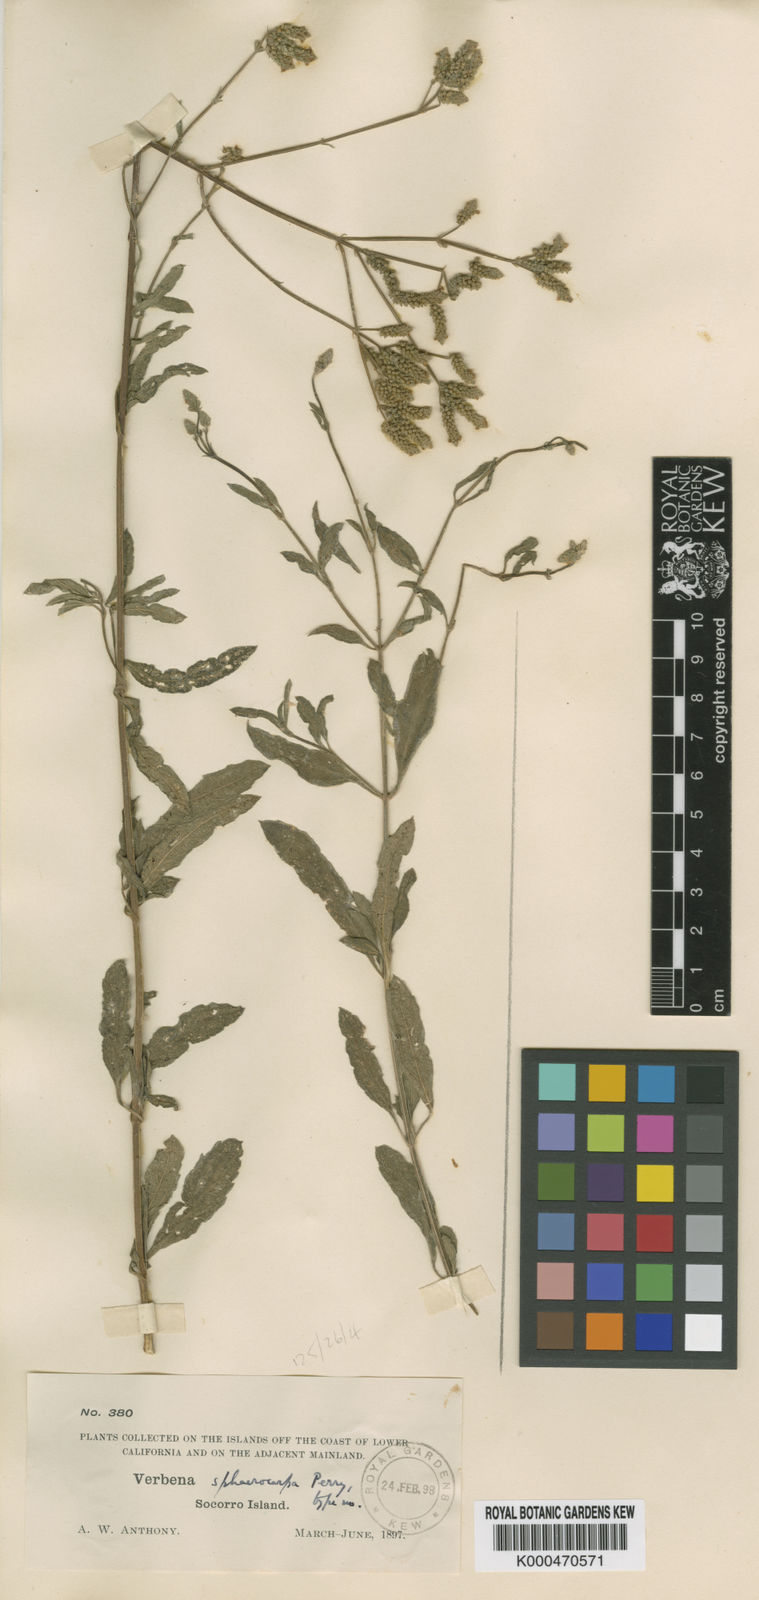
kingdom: Plantae
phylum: Tracheophyta
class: Magnoliopsida
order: Lamiales
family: Verbenaceae
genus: Verbena
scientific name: Verbena sphaerocarpa
